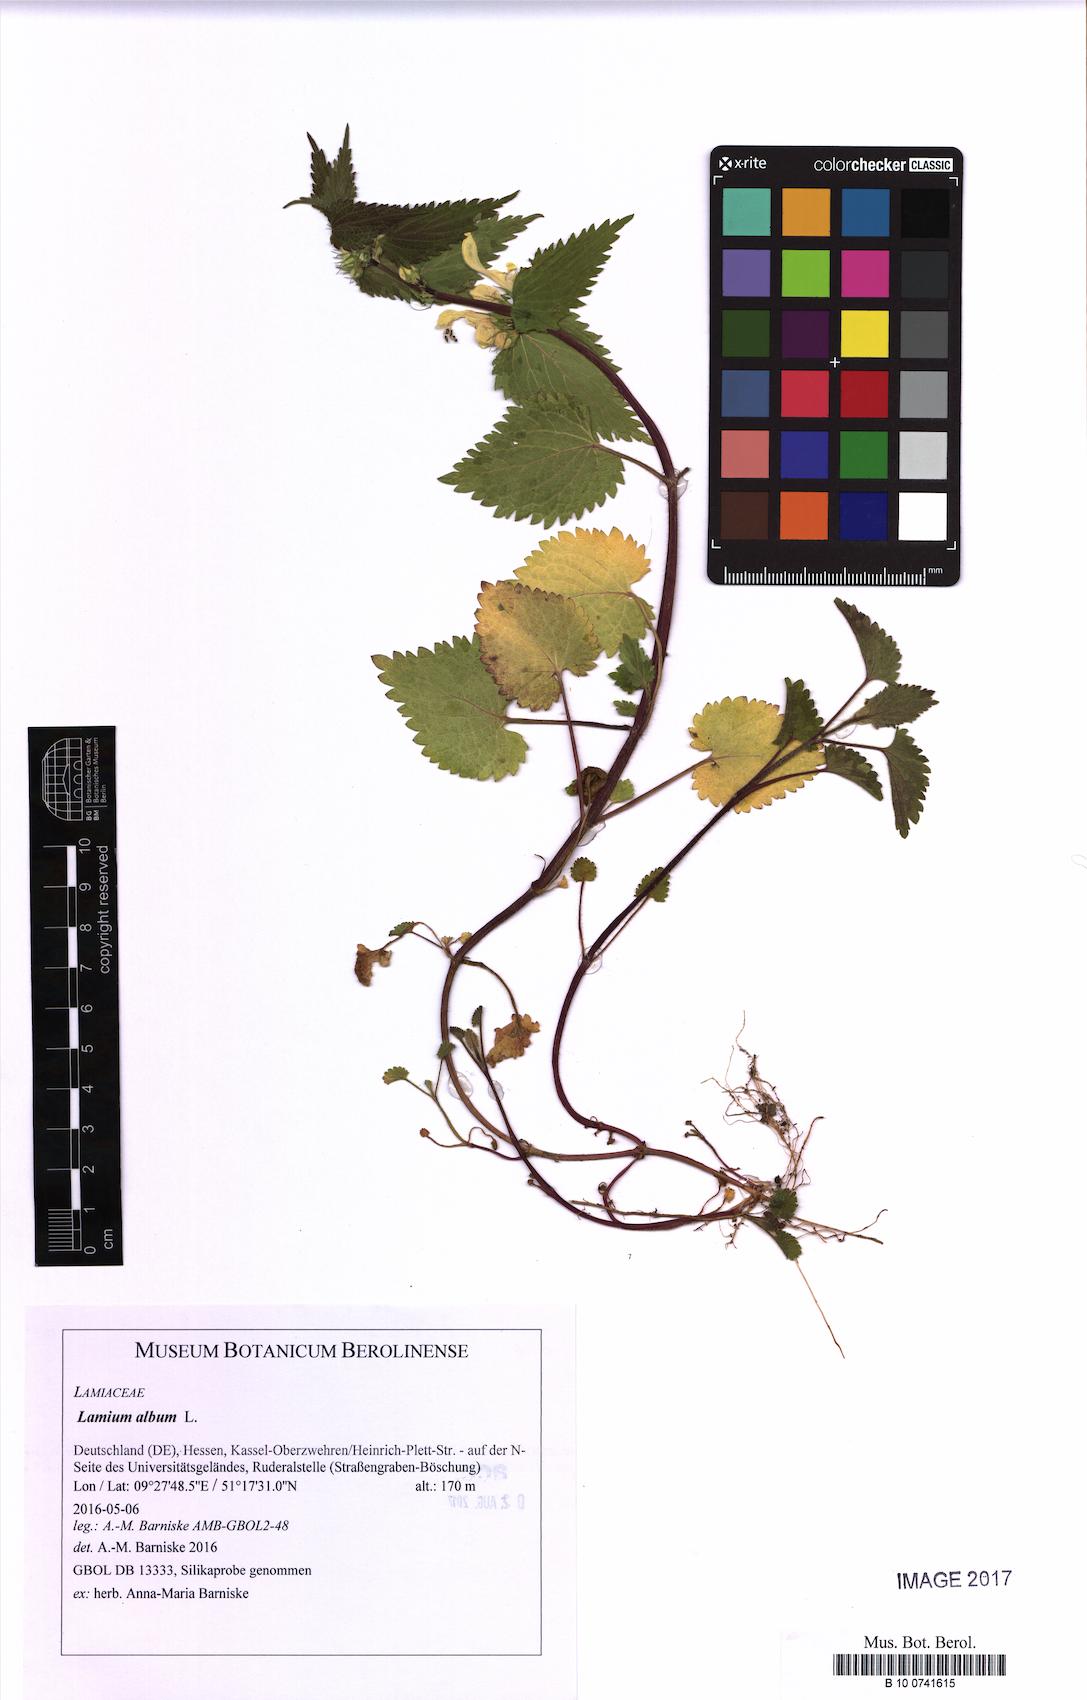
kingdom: Plantae
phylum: Tracheophyta
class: Magnoliopsida
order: Lamiales
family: Lamiaceae
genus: Lamium
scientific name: Lamium album
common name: White dead-nettle
